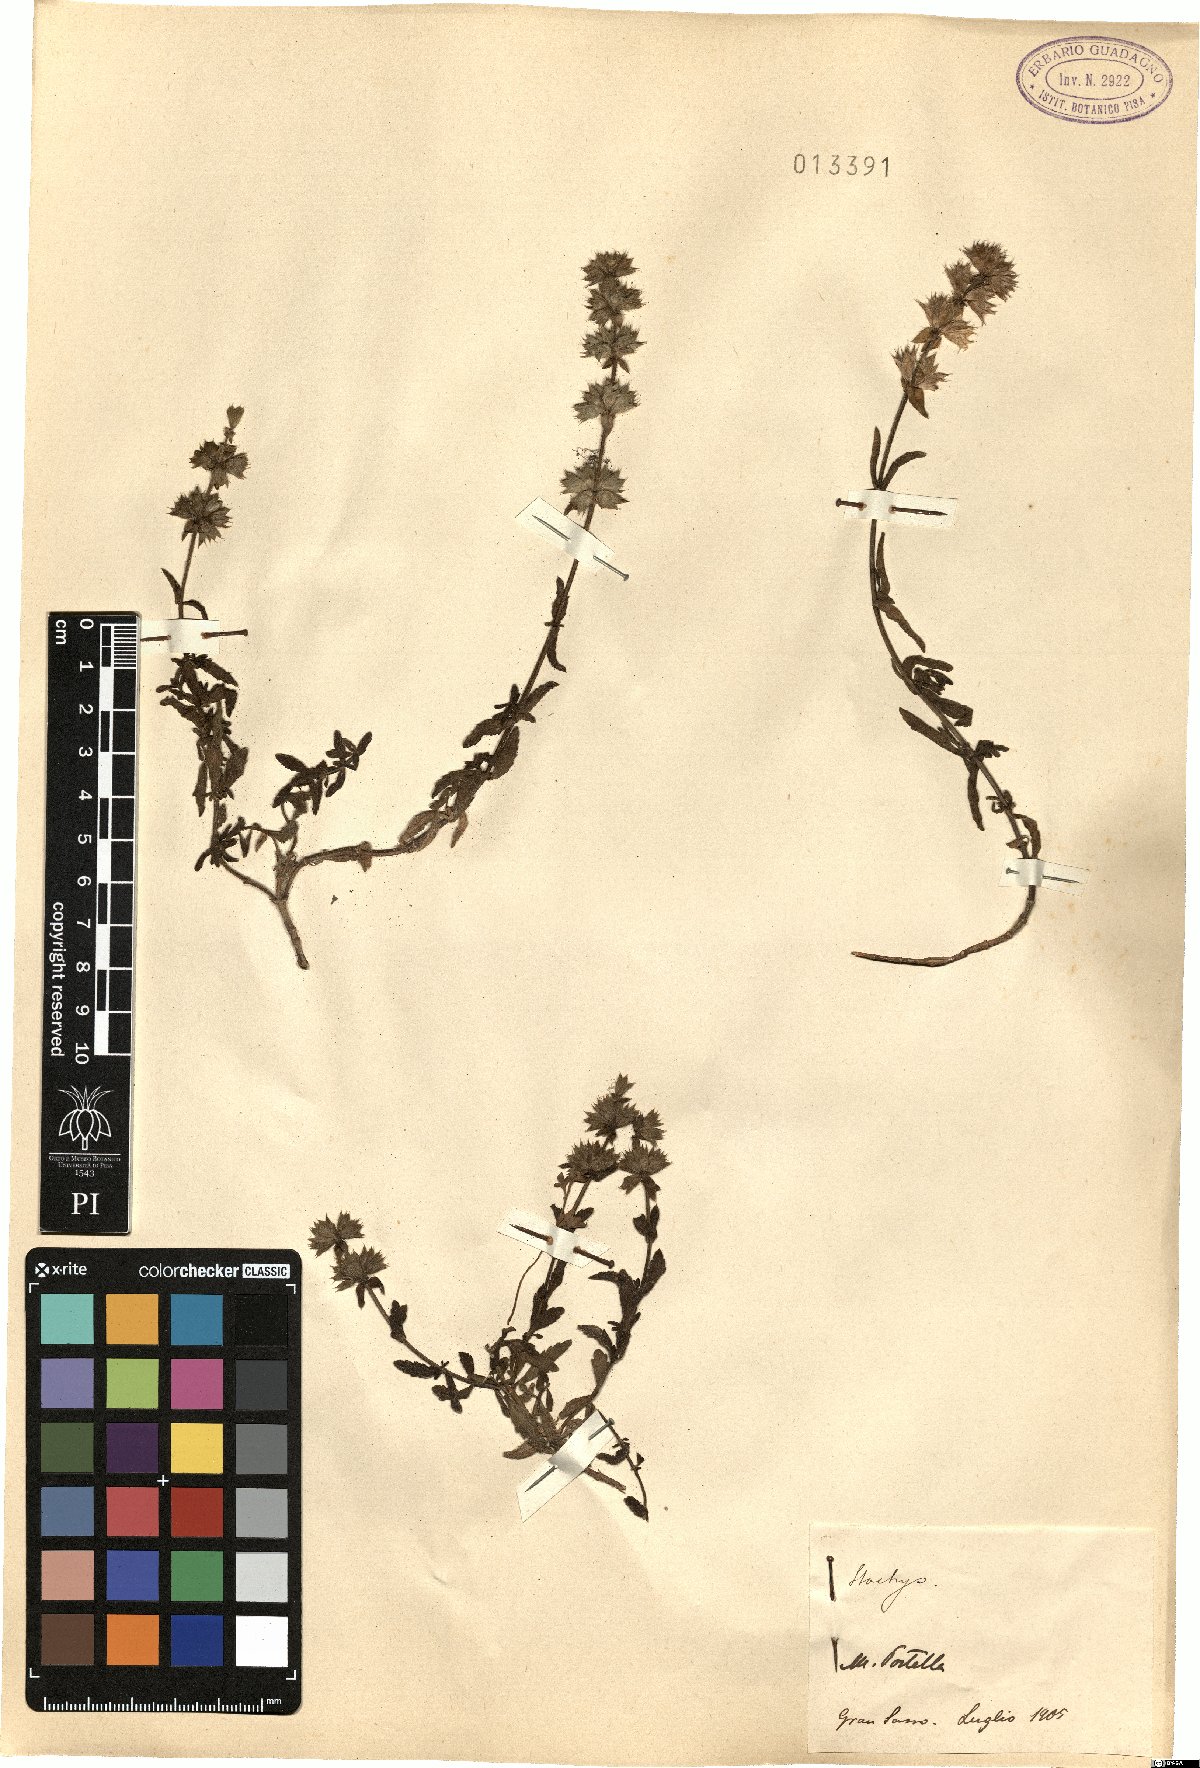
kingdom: Plantae
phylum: Tracheophyta
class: Magnoliopsida
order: Lamiales
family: Lamiaceae
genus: Stachys
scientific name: Stachys
